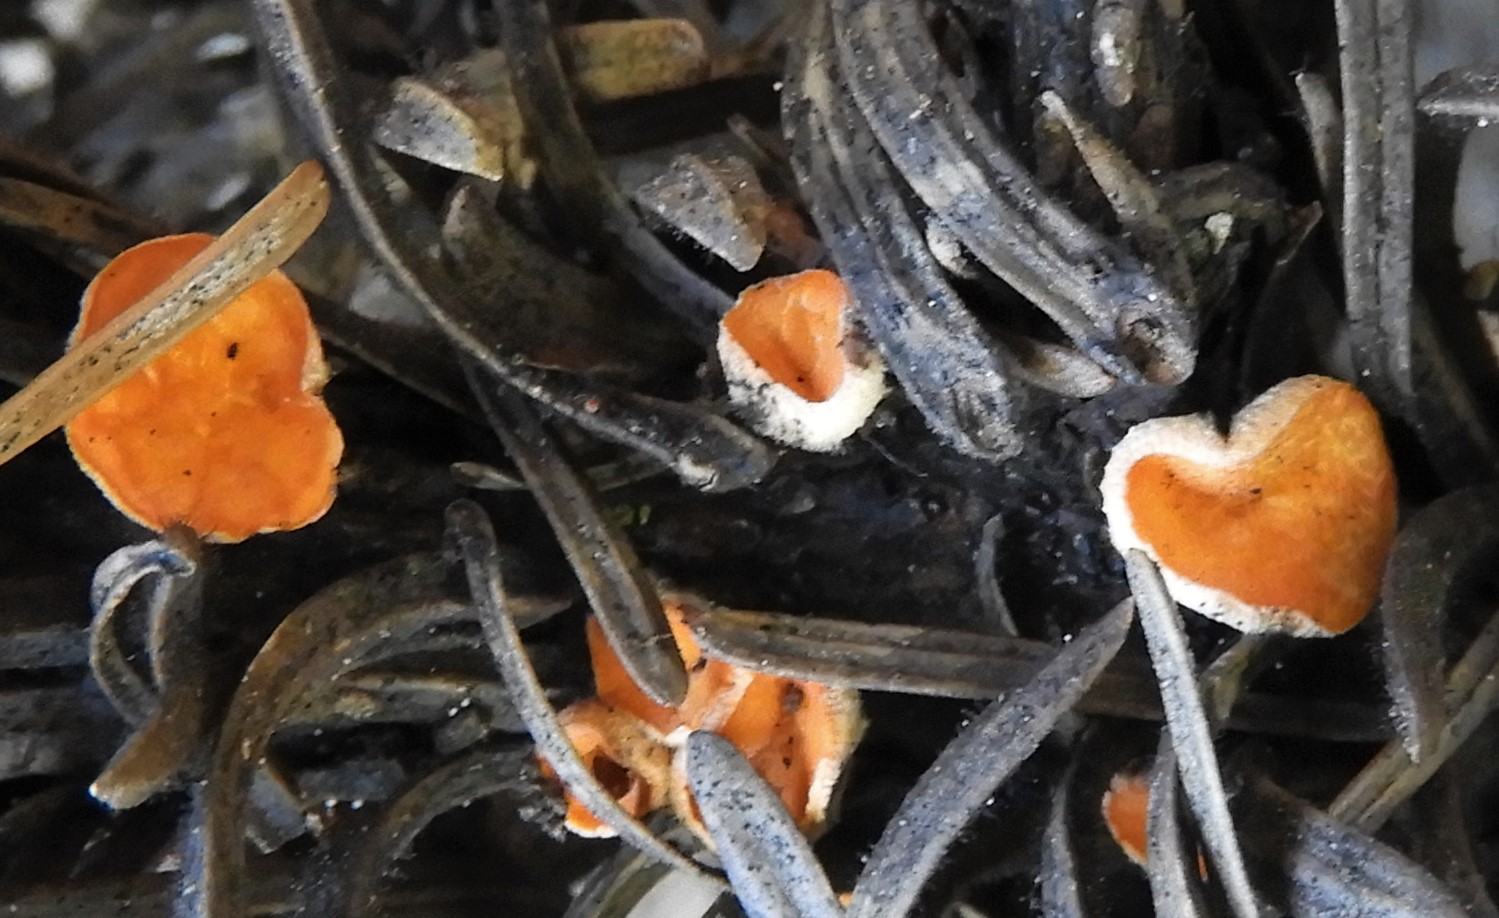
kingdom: Fungi
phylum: Ascomycota
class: Pezizomycetes
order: Pezizales
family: Sarcoscyphaceae
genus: Pithya
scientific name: Pithya vulgaris
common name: stor dukatbæger
